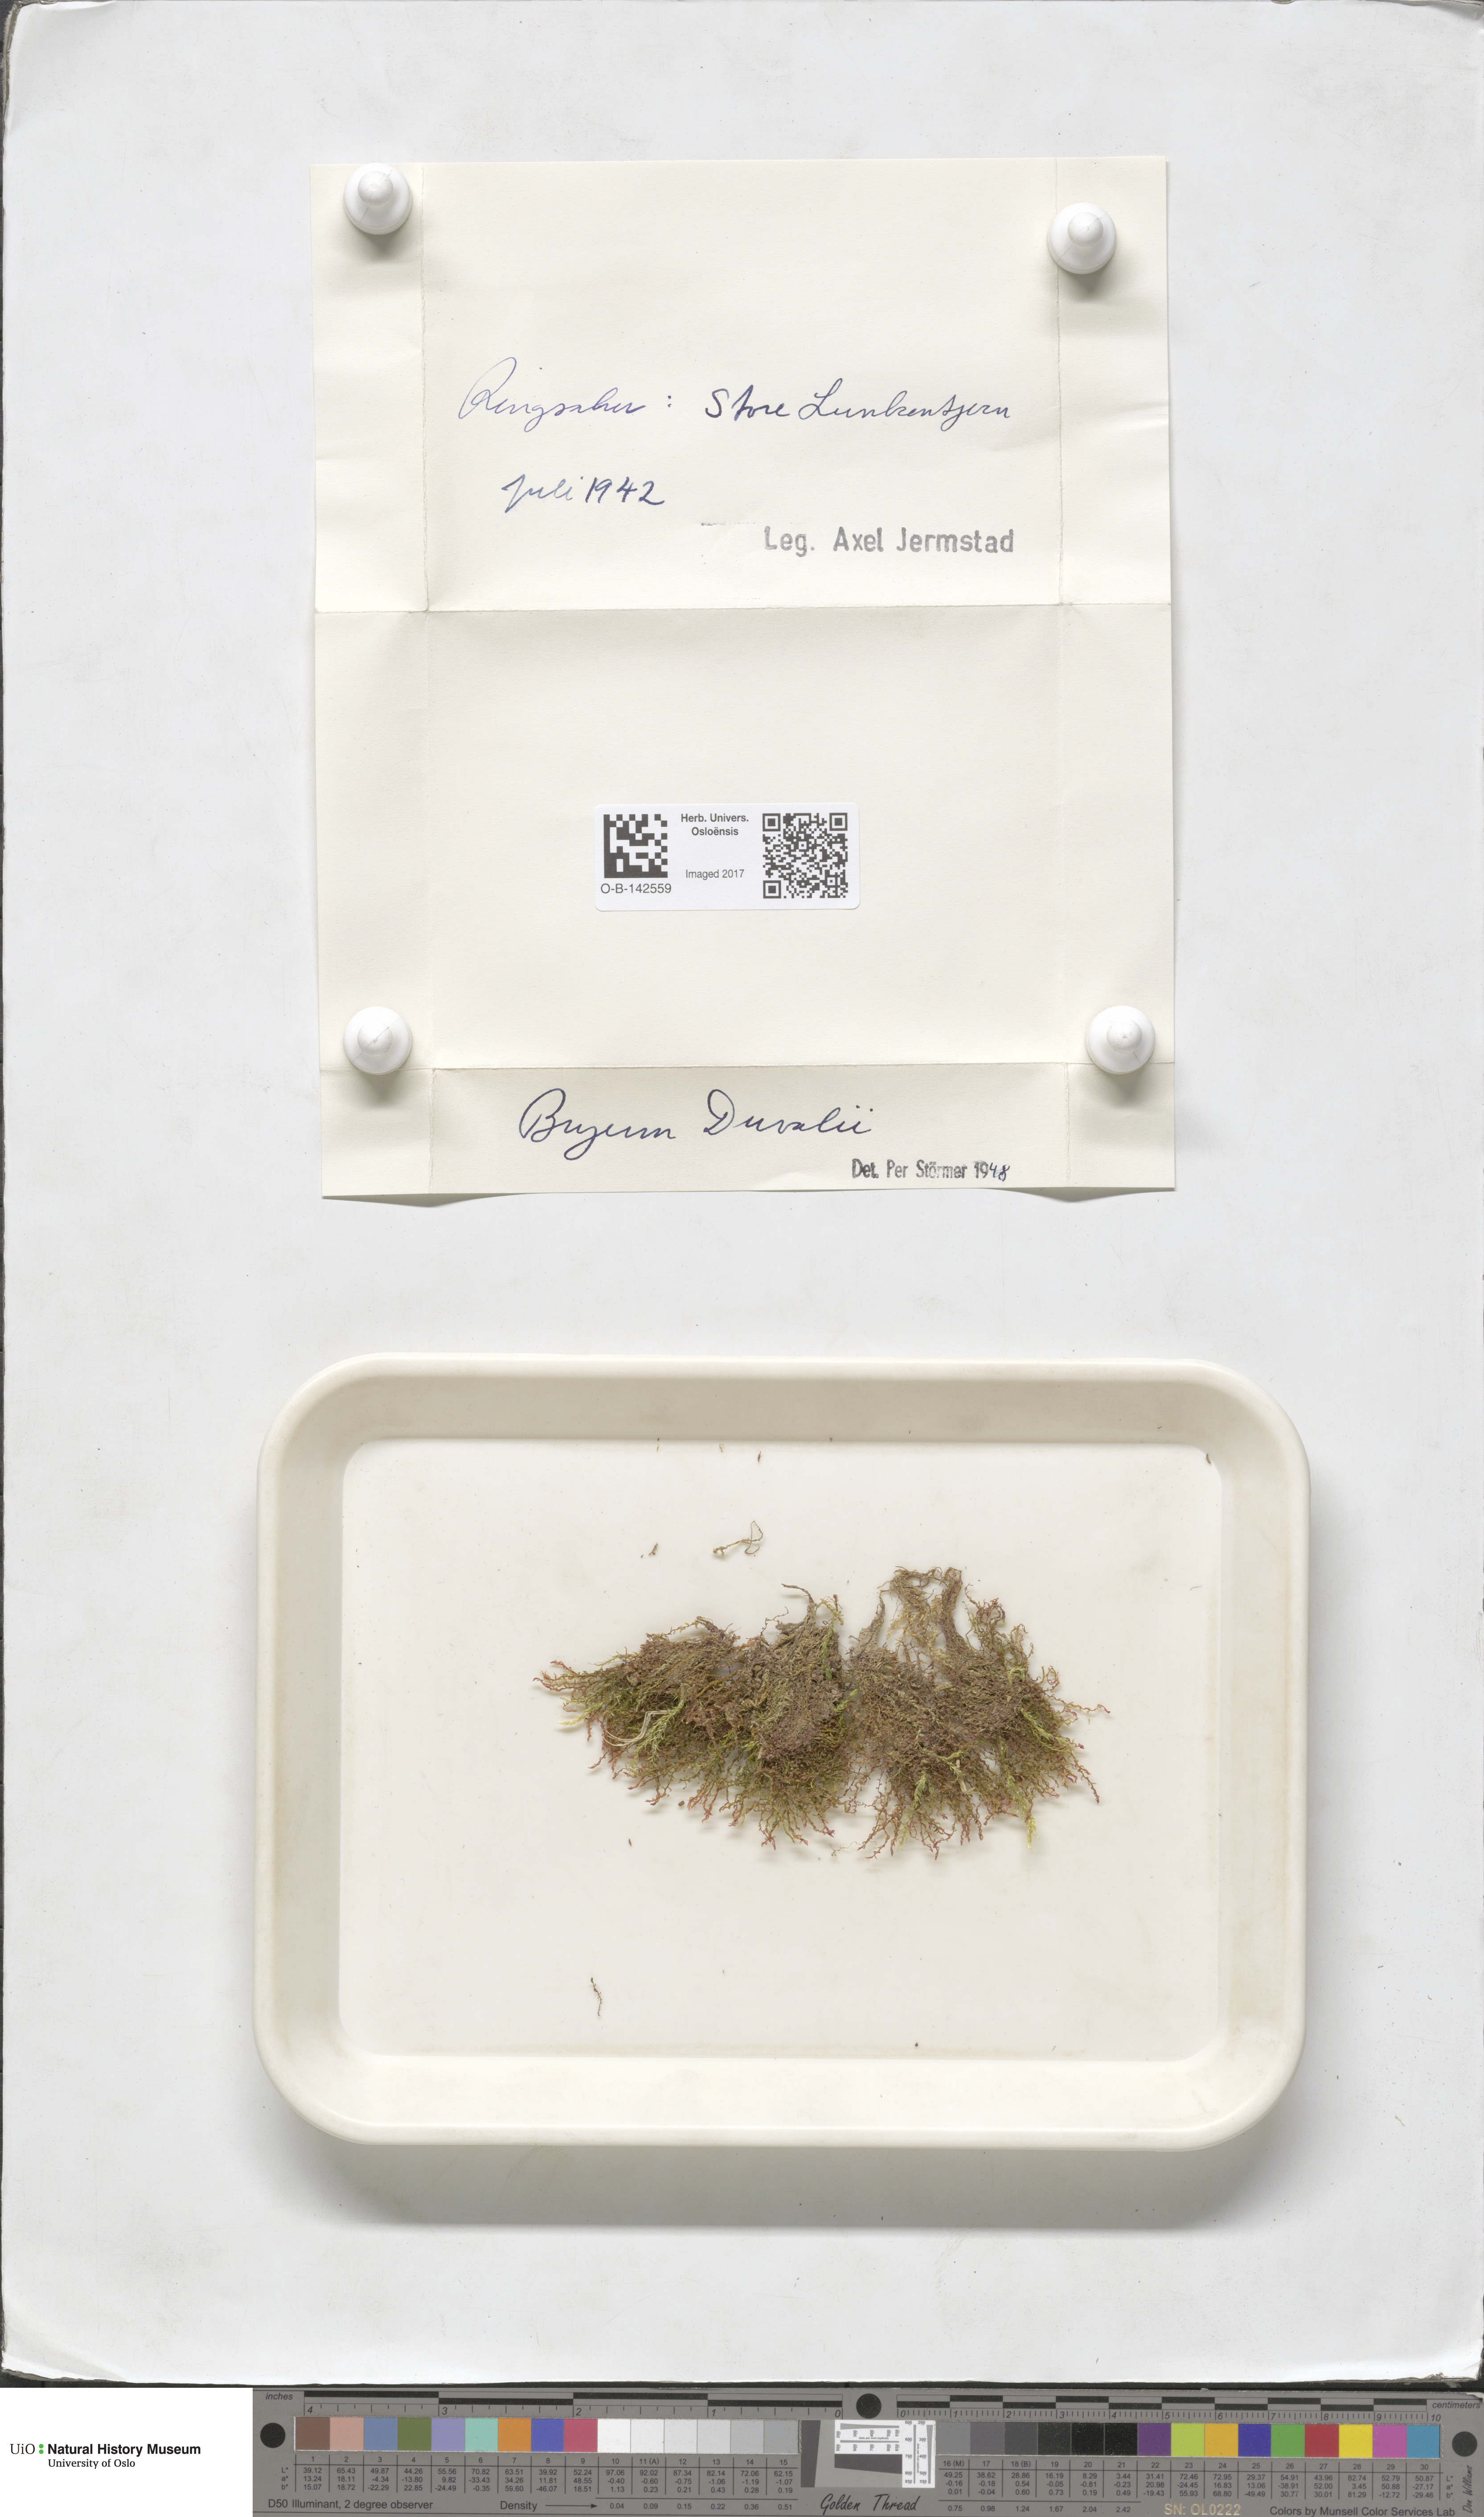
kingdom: Plantae
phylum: Bryophyta
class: Bryopsida
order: Bryales
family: Bryaceae
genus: Ptychostomum
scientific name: Ptychostomum weigelii
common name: Weigel's bryum moss
